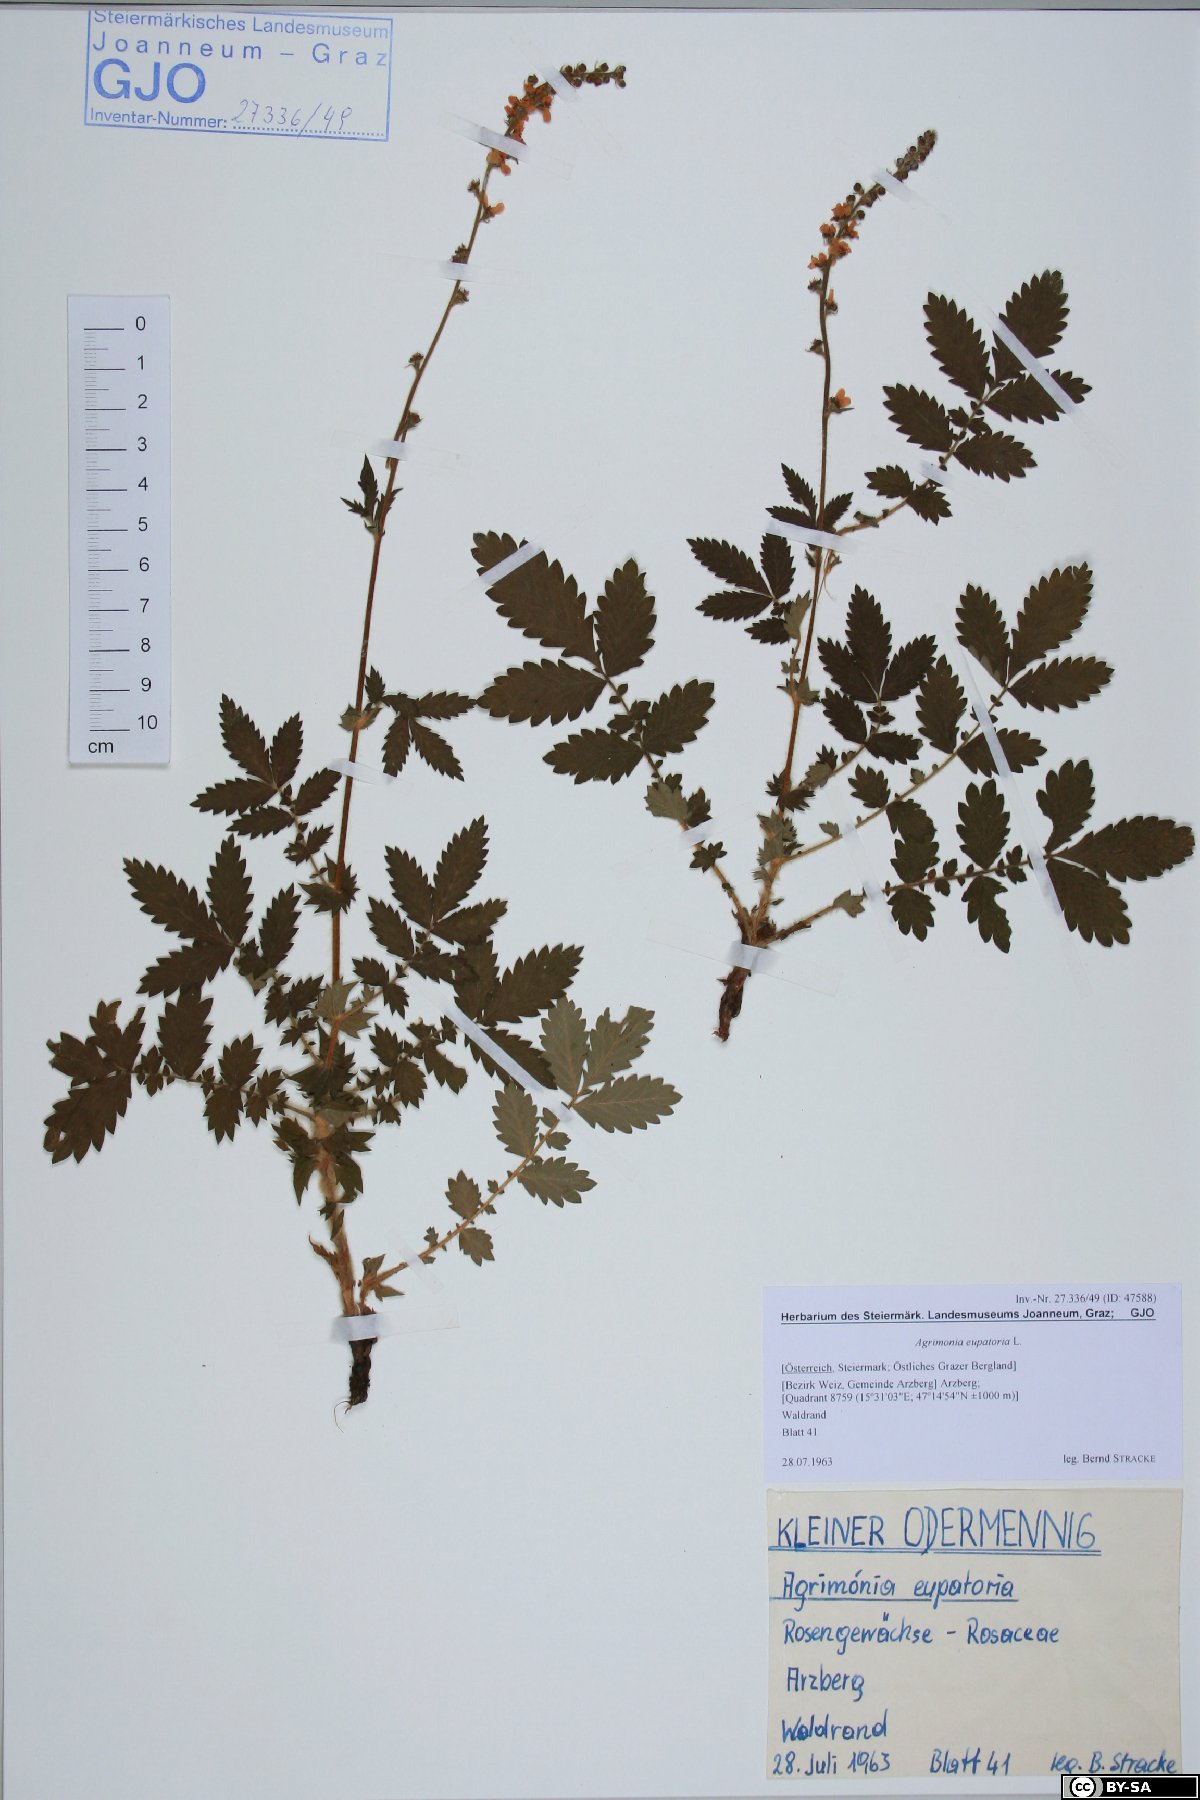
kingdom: Plantae
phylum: Tracheophyta
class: Magnoliopsida
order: Rosales
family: Rosaceae
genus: Agrimonia
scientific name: Agrimonia eupatoria
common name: Agrimony
